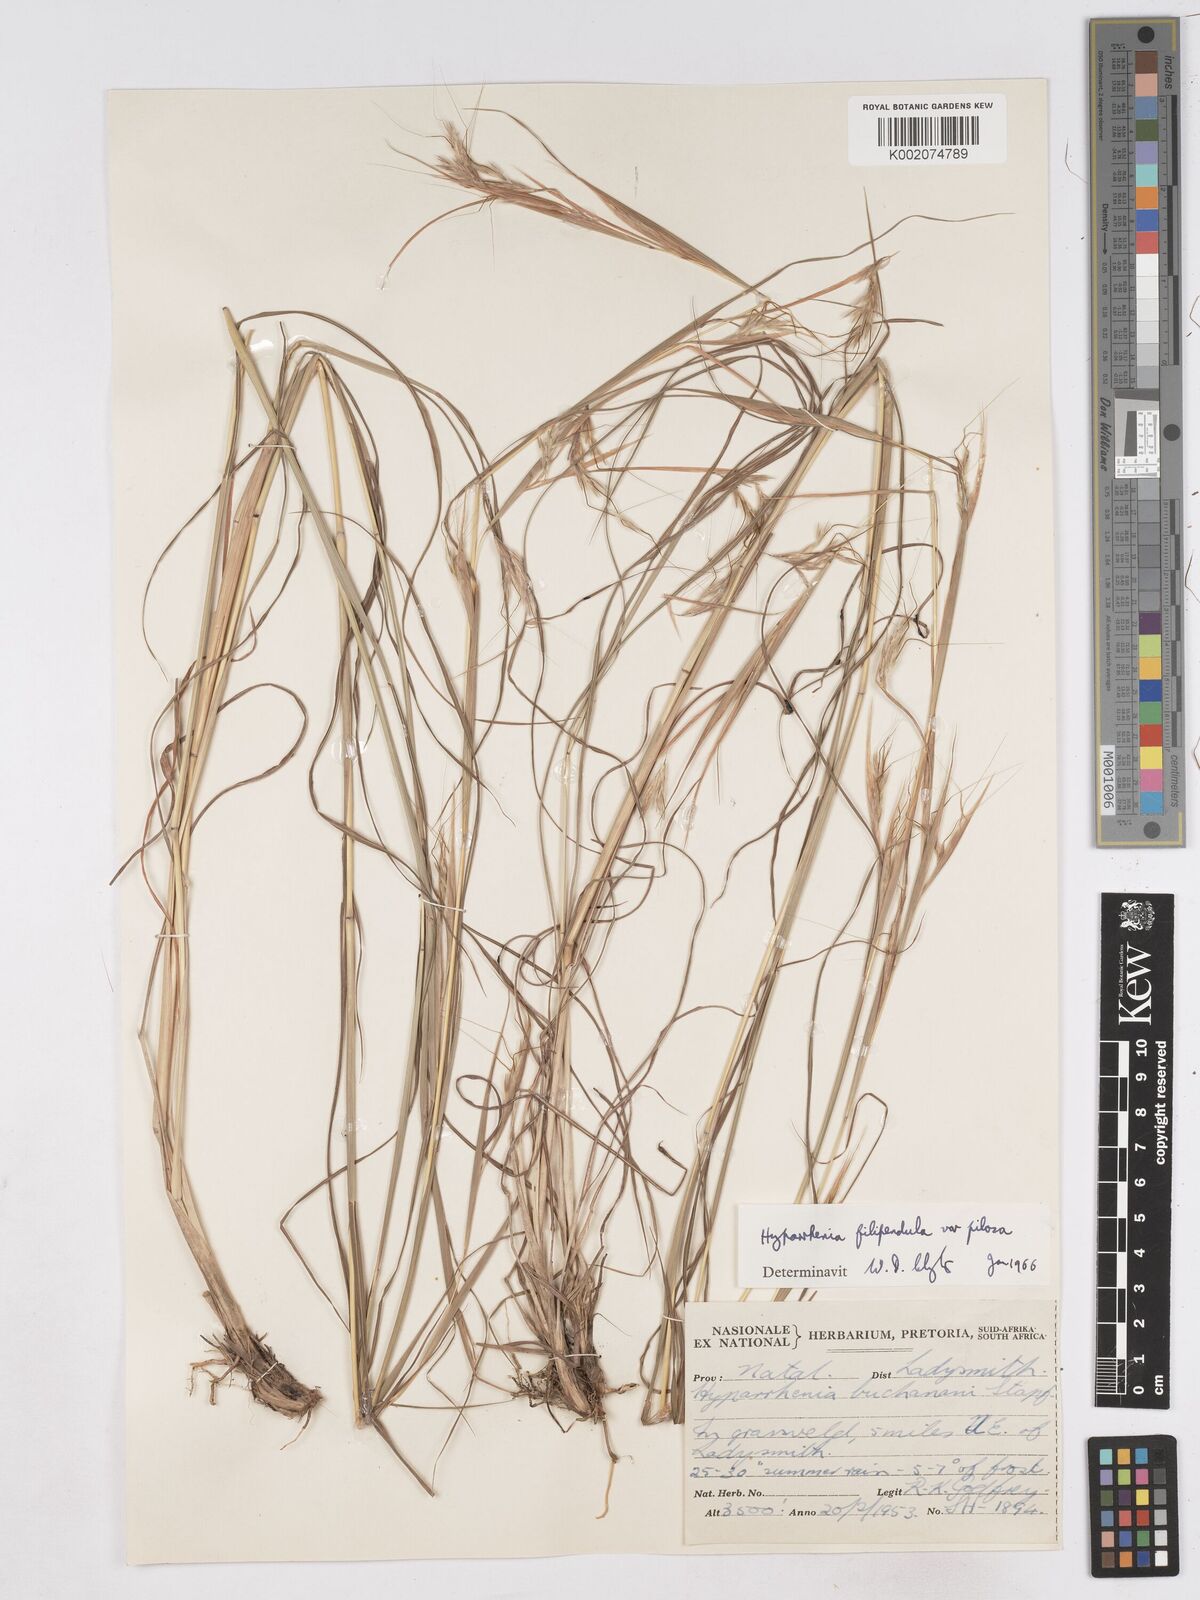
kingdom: Plantae
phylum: Tracheophyta
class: Liliopsida
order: Poales
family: Poaceae
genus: Hyparrhenia
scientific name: Hyparrhenia filipendula
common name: Tambookie grass
